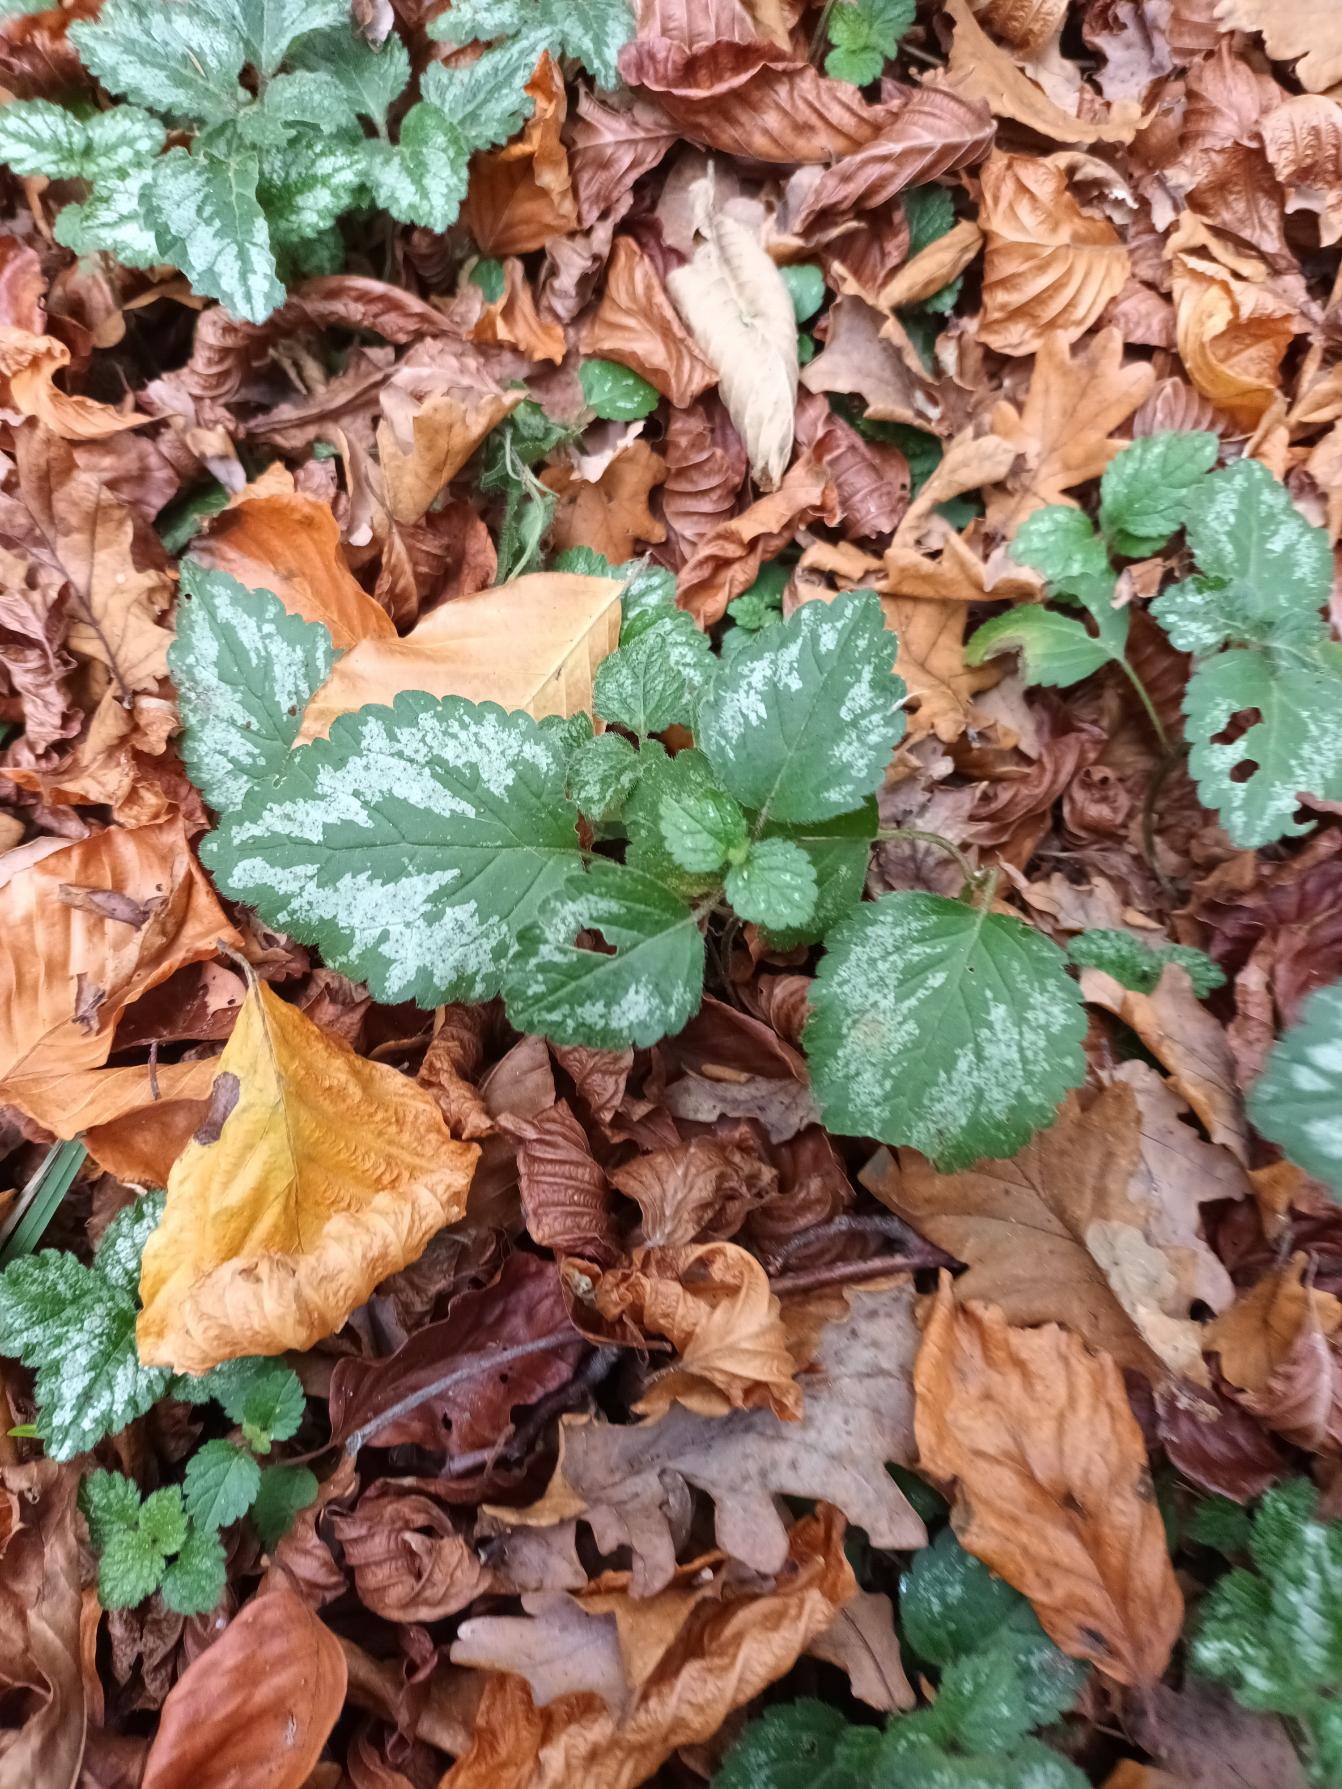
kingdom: Plantae
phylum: Tracheophyta
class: Magnoliopsida
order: Lamiales
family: Lamiaceae
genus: Lamium
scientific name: Lamium galeobdolon
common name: Have-guldnælde
